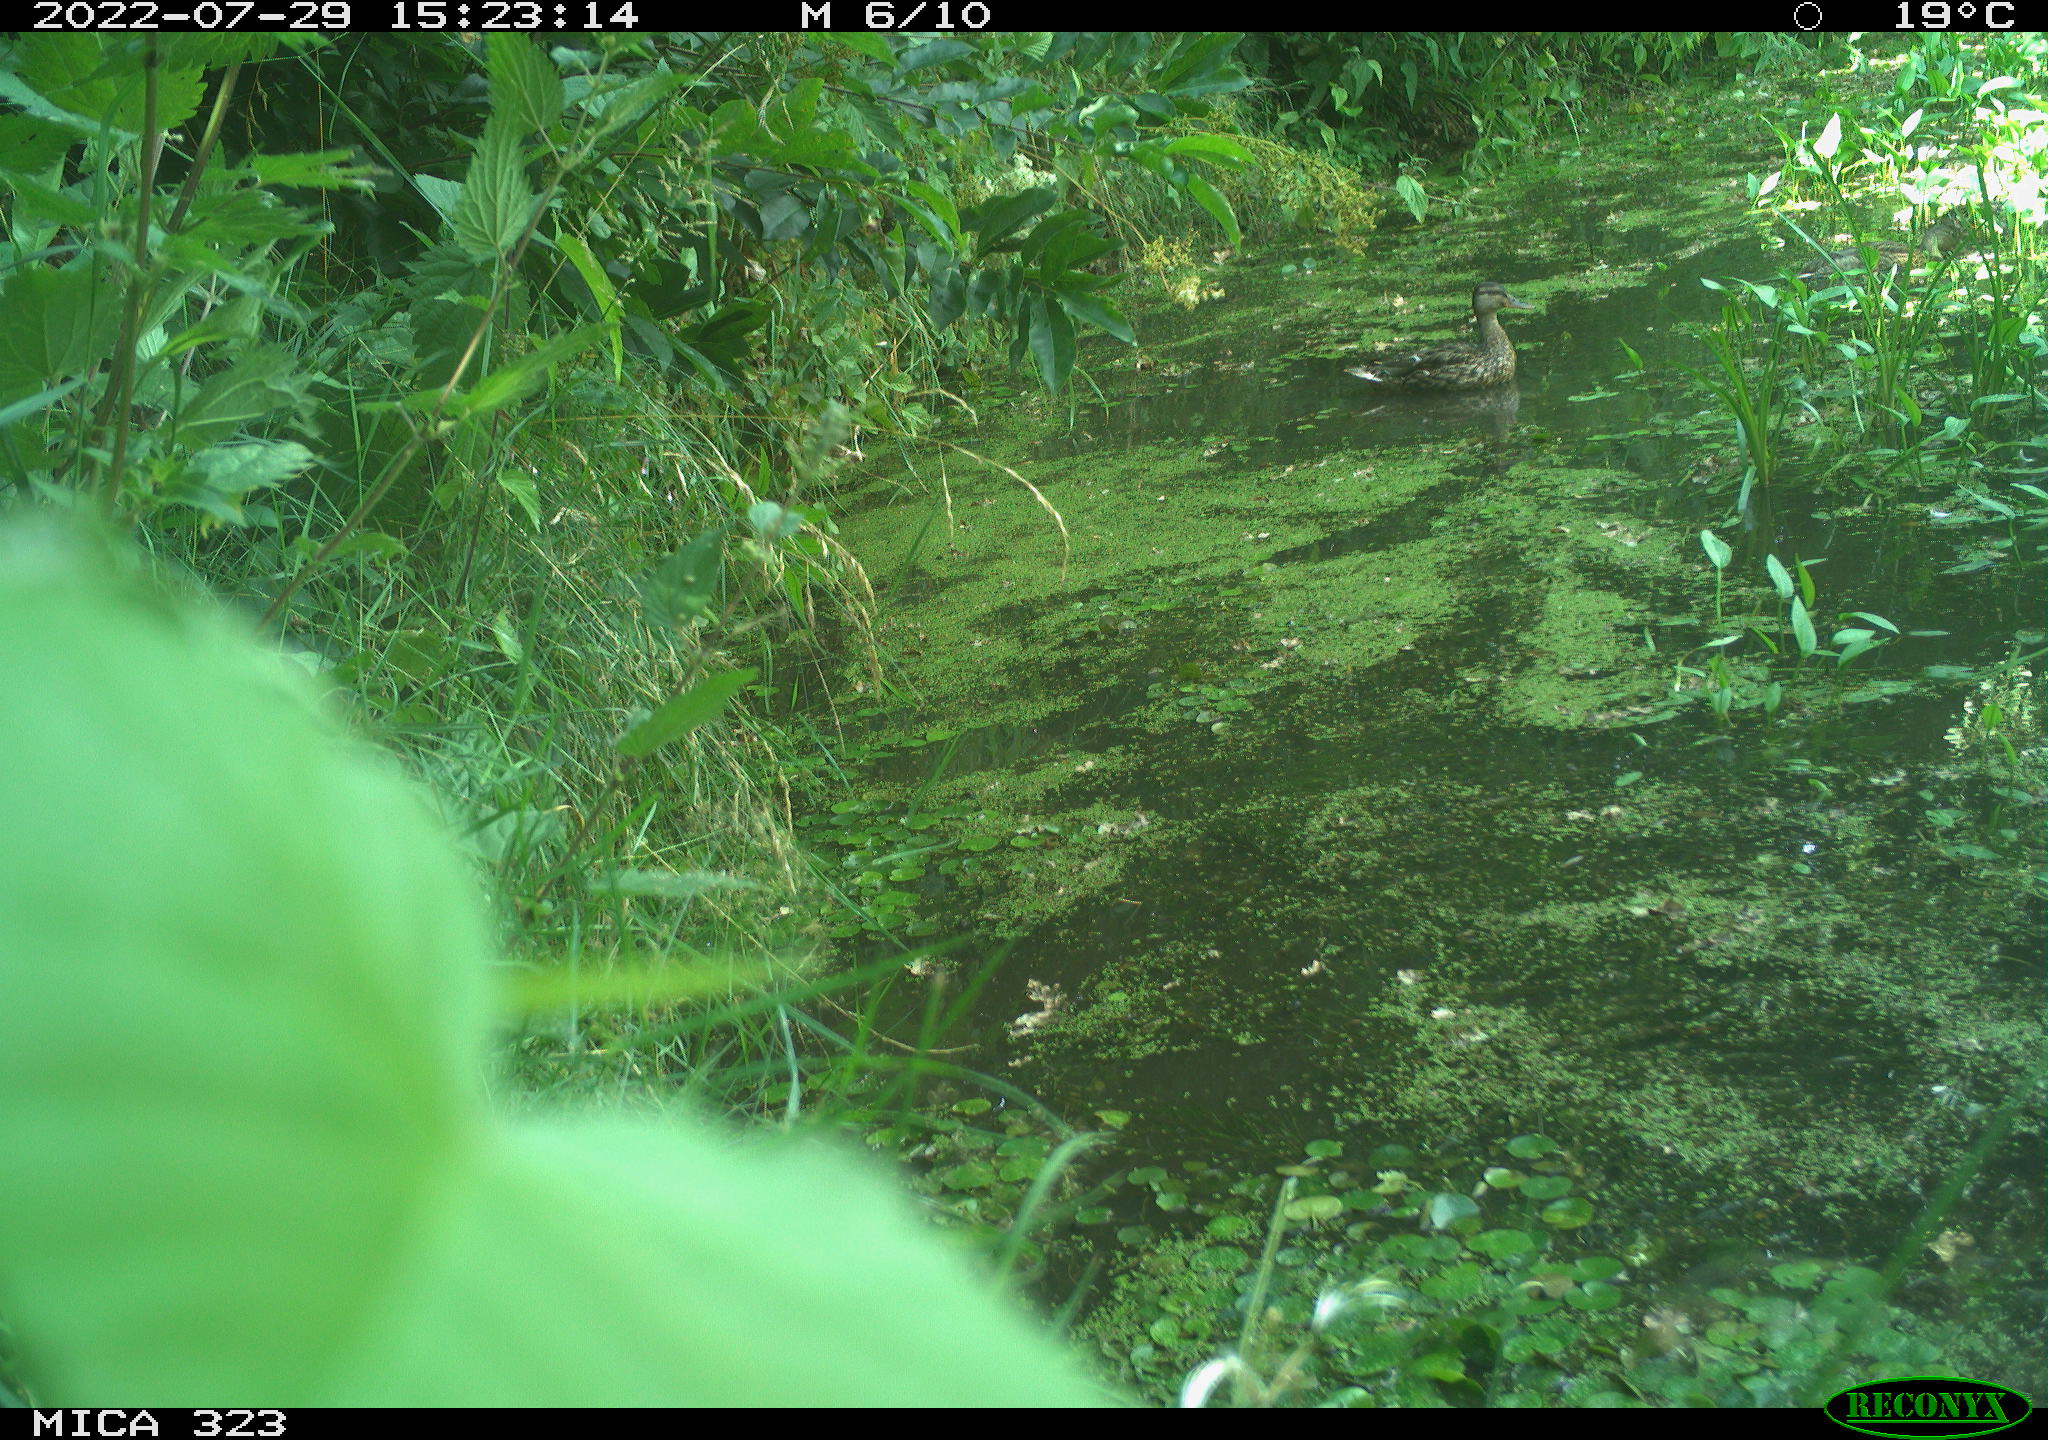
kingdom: Animalia
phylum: Chordata
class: Aves
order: Anseriformes
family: Anatidae
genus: Anas
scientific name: Anas platyrhynchos
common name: Mallard
